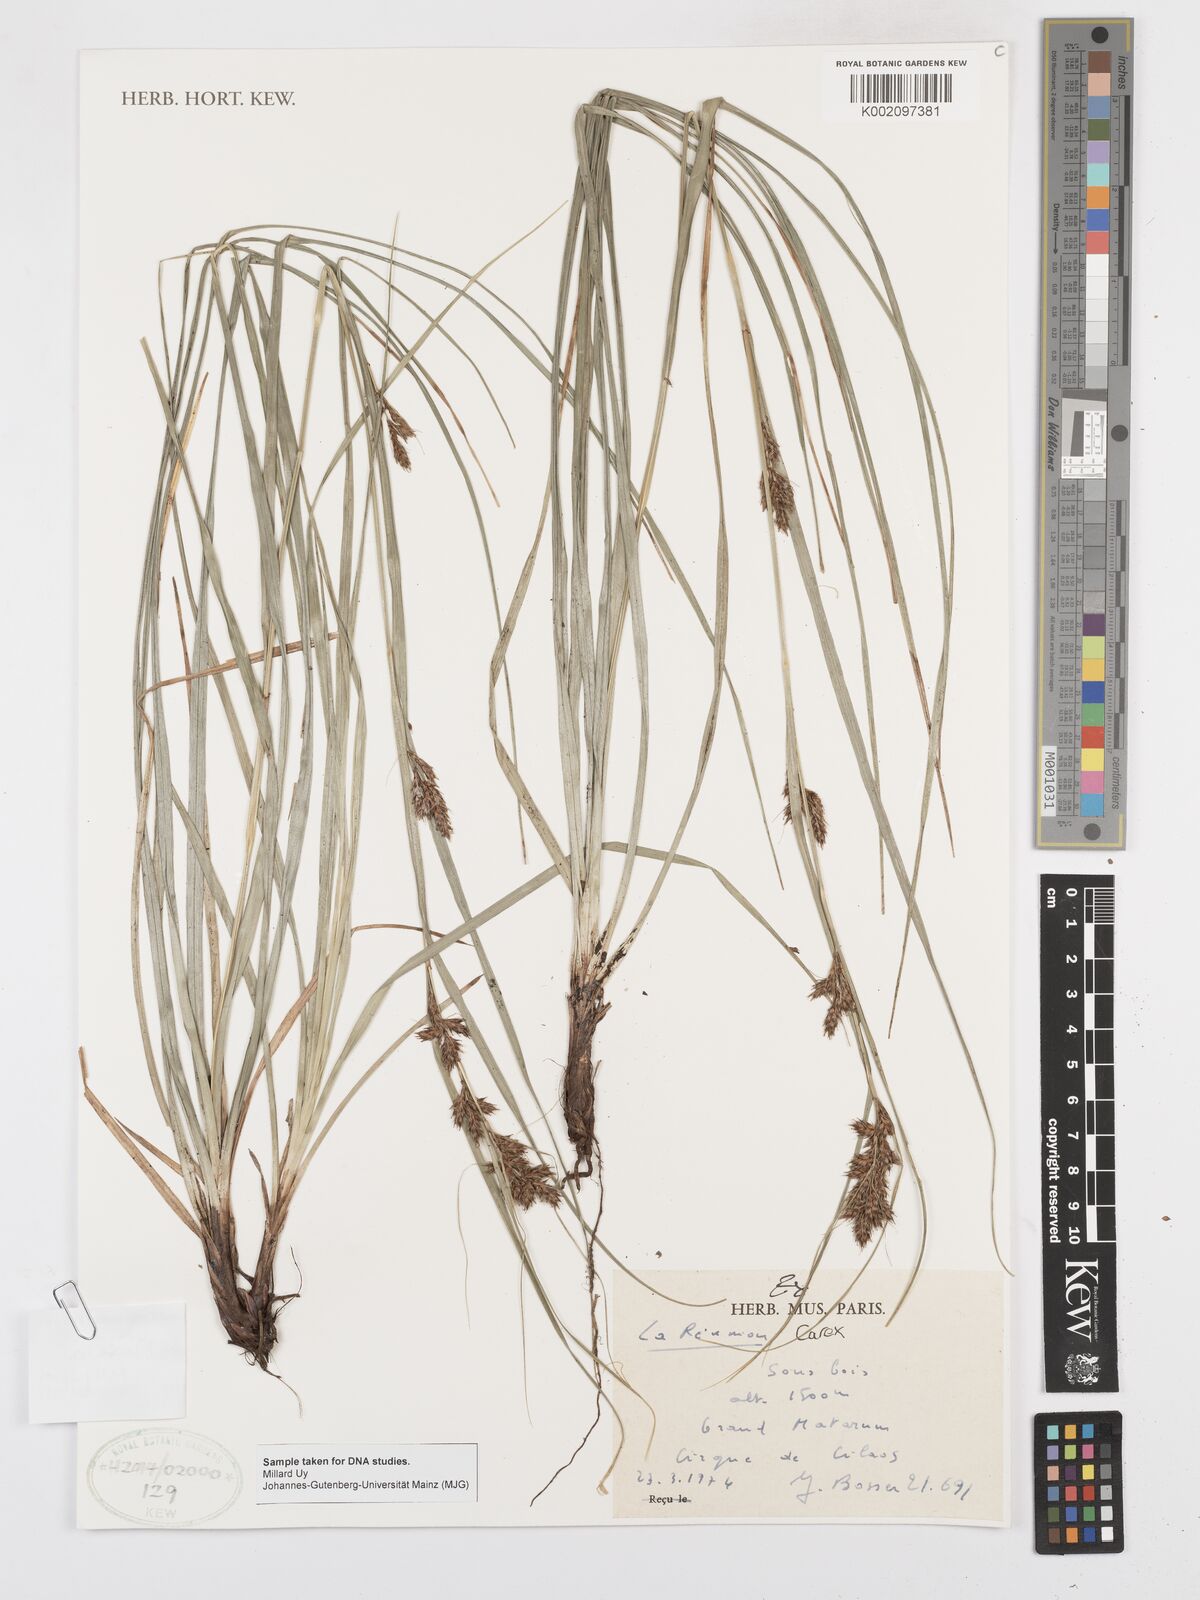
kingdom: Plantae
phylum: Tracheophyta
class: Liliopsida
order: Poales
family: Cyperaceae
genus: Carex
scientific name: Carex
